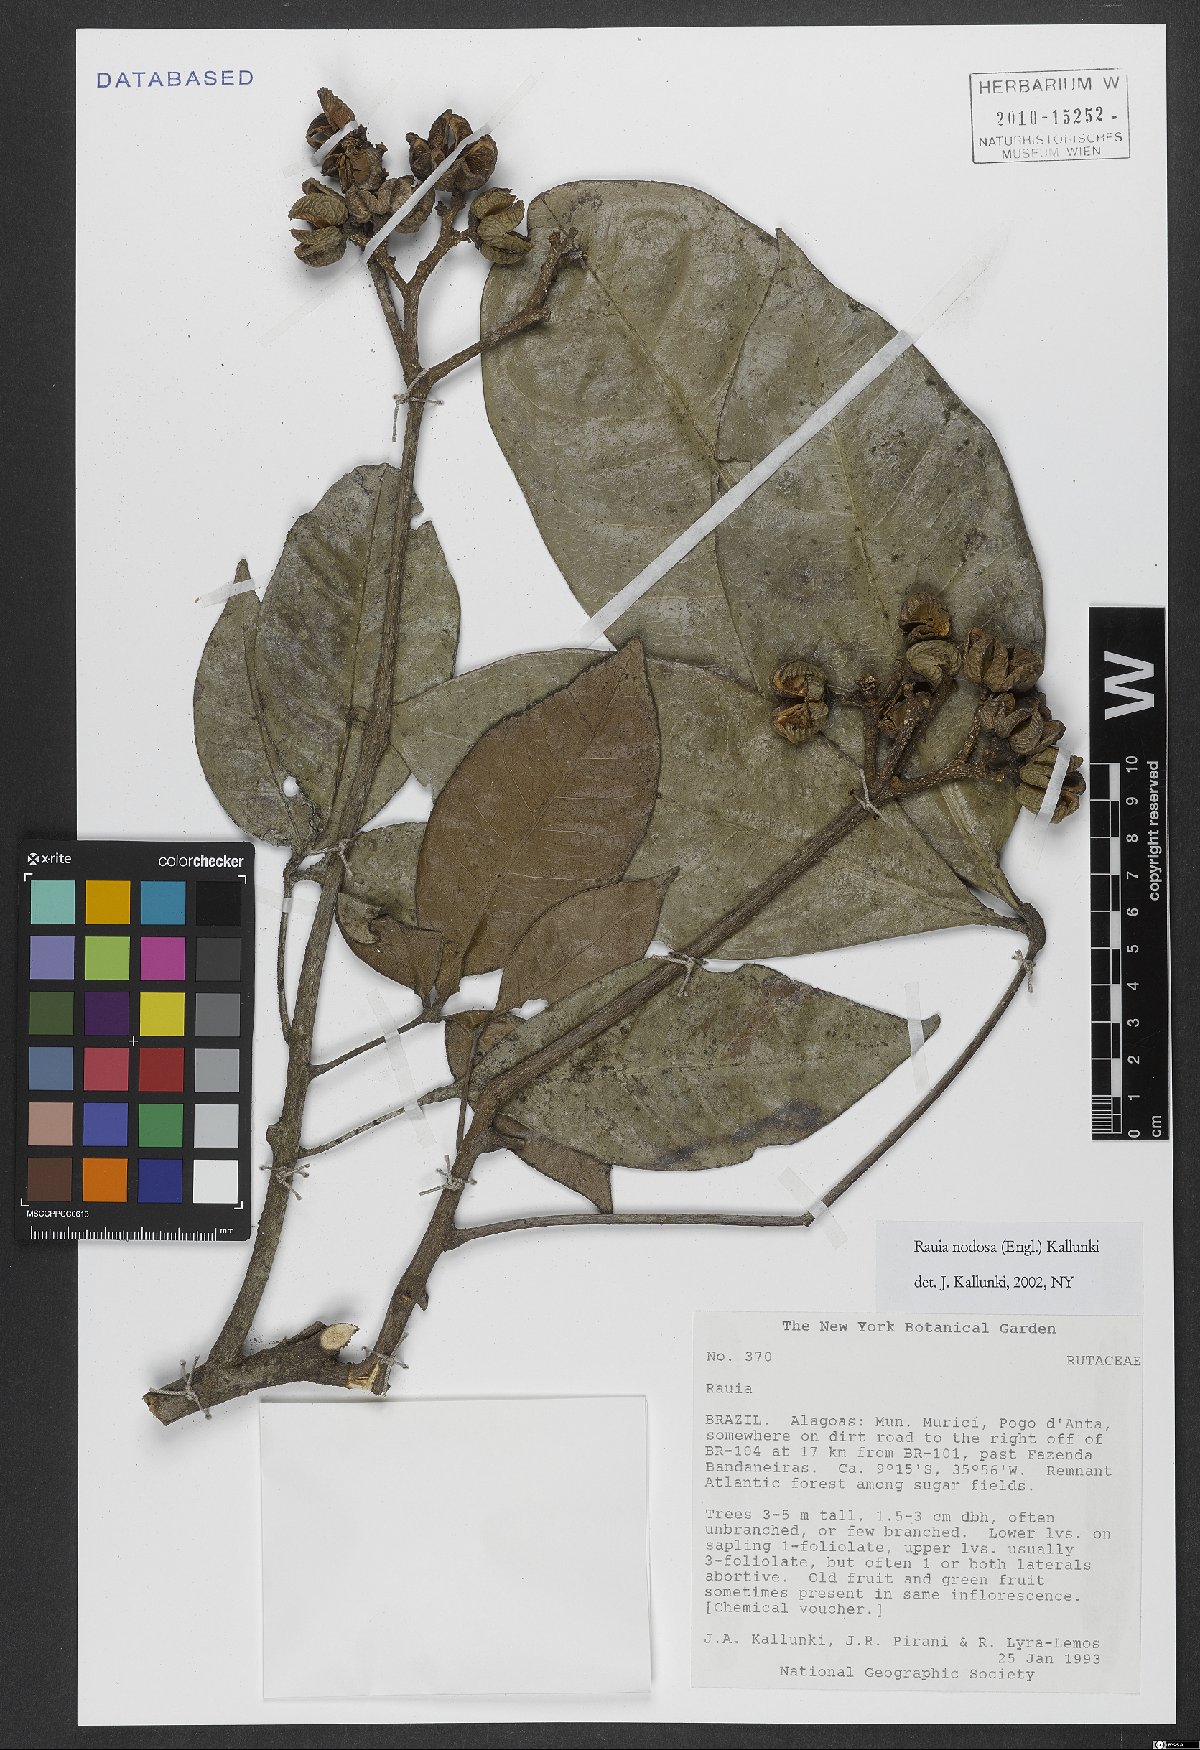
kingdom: Plantae
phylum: Tracheophyta
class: Magnoliopsida
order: Sapindales
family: Rutaceae
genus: Rauia
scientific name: Rauia nodosa
